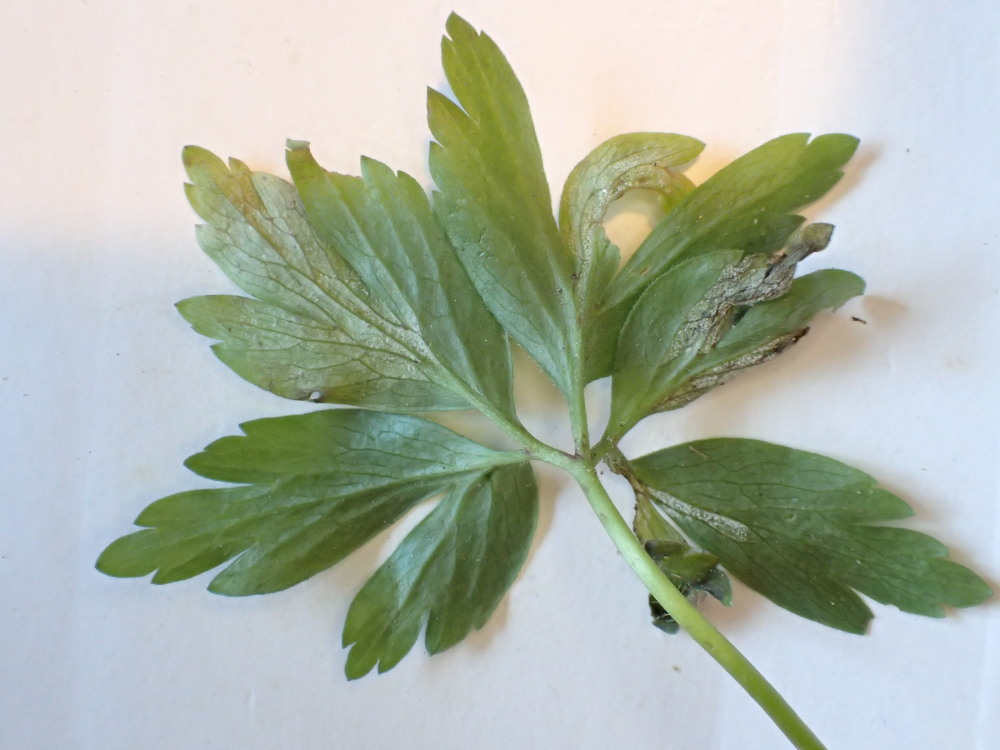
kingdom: Chromista
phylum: Oomycota
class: Peronosporea
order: Peronosporales
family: Peronosporaceae
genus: Plasmoverna
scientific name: Plasmoverna pygmaea
